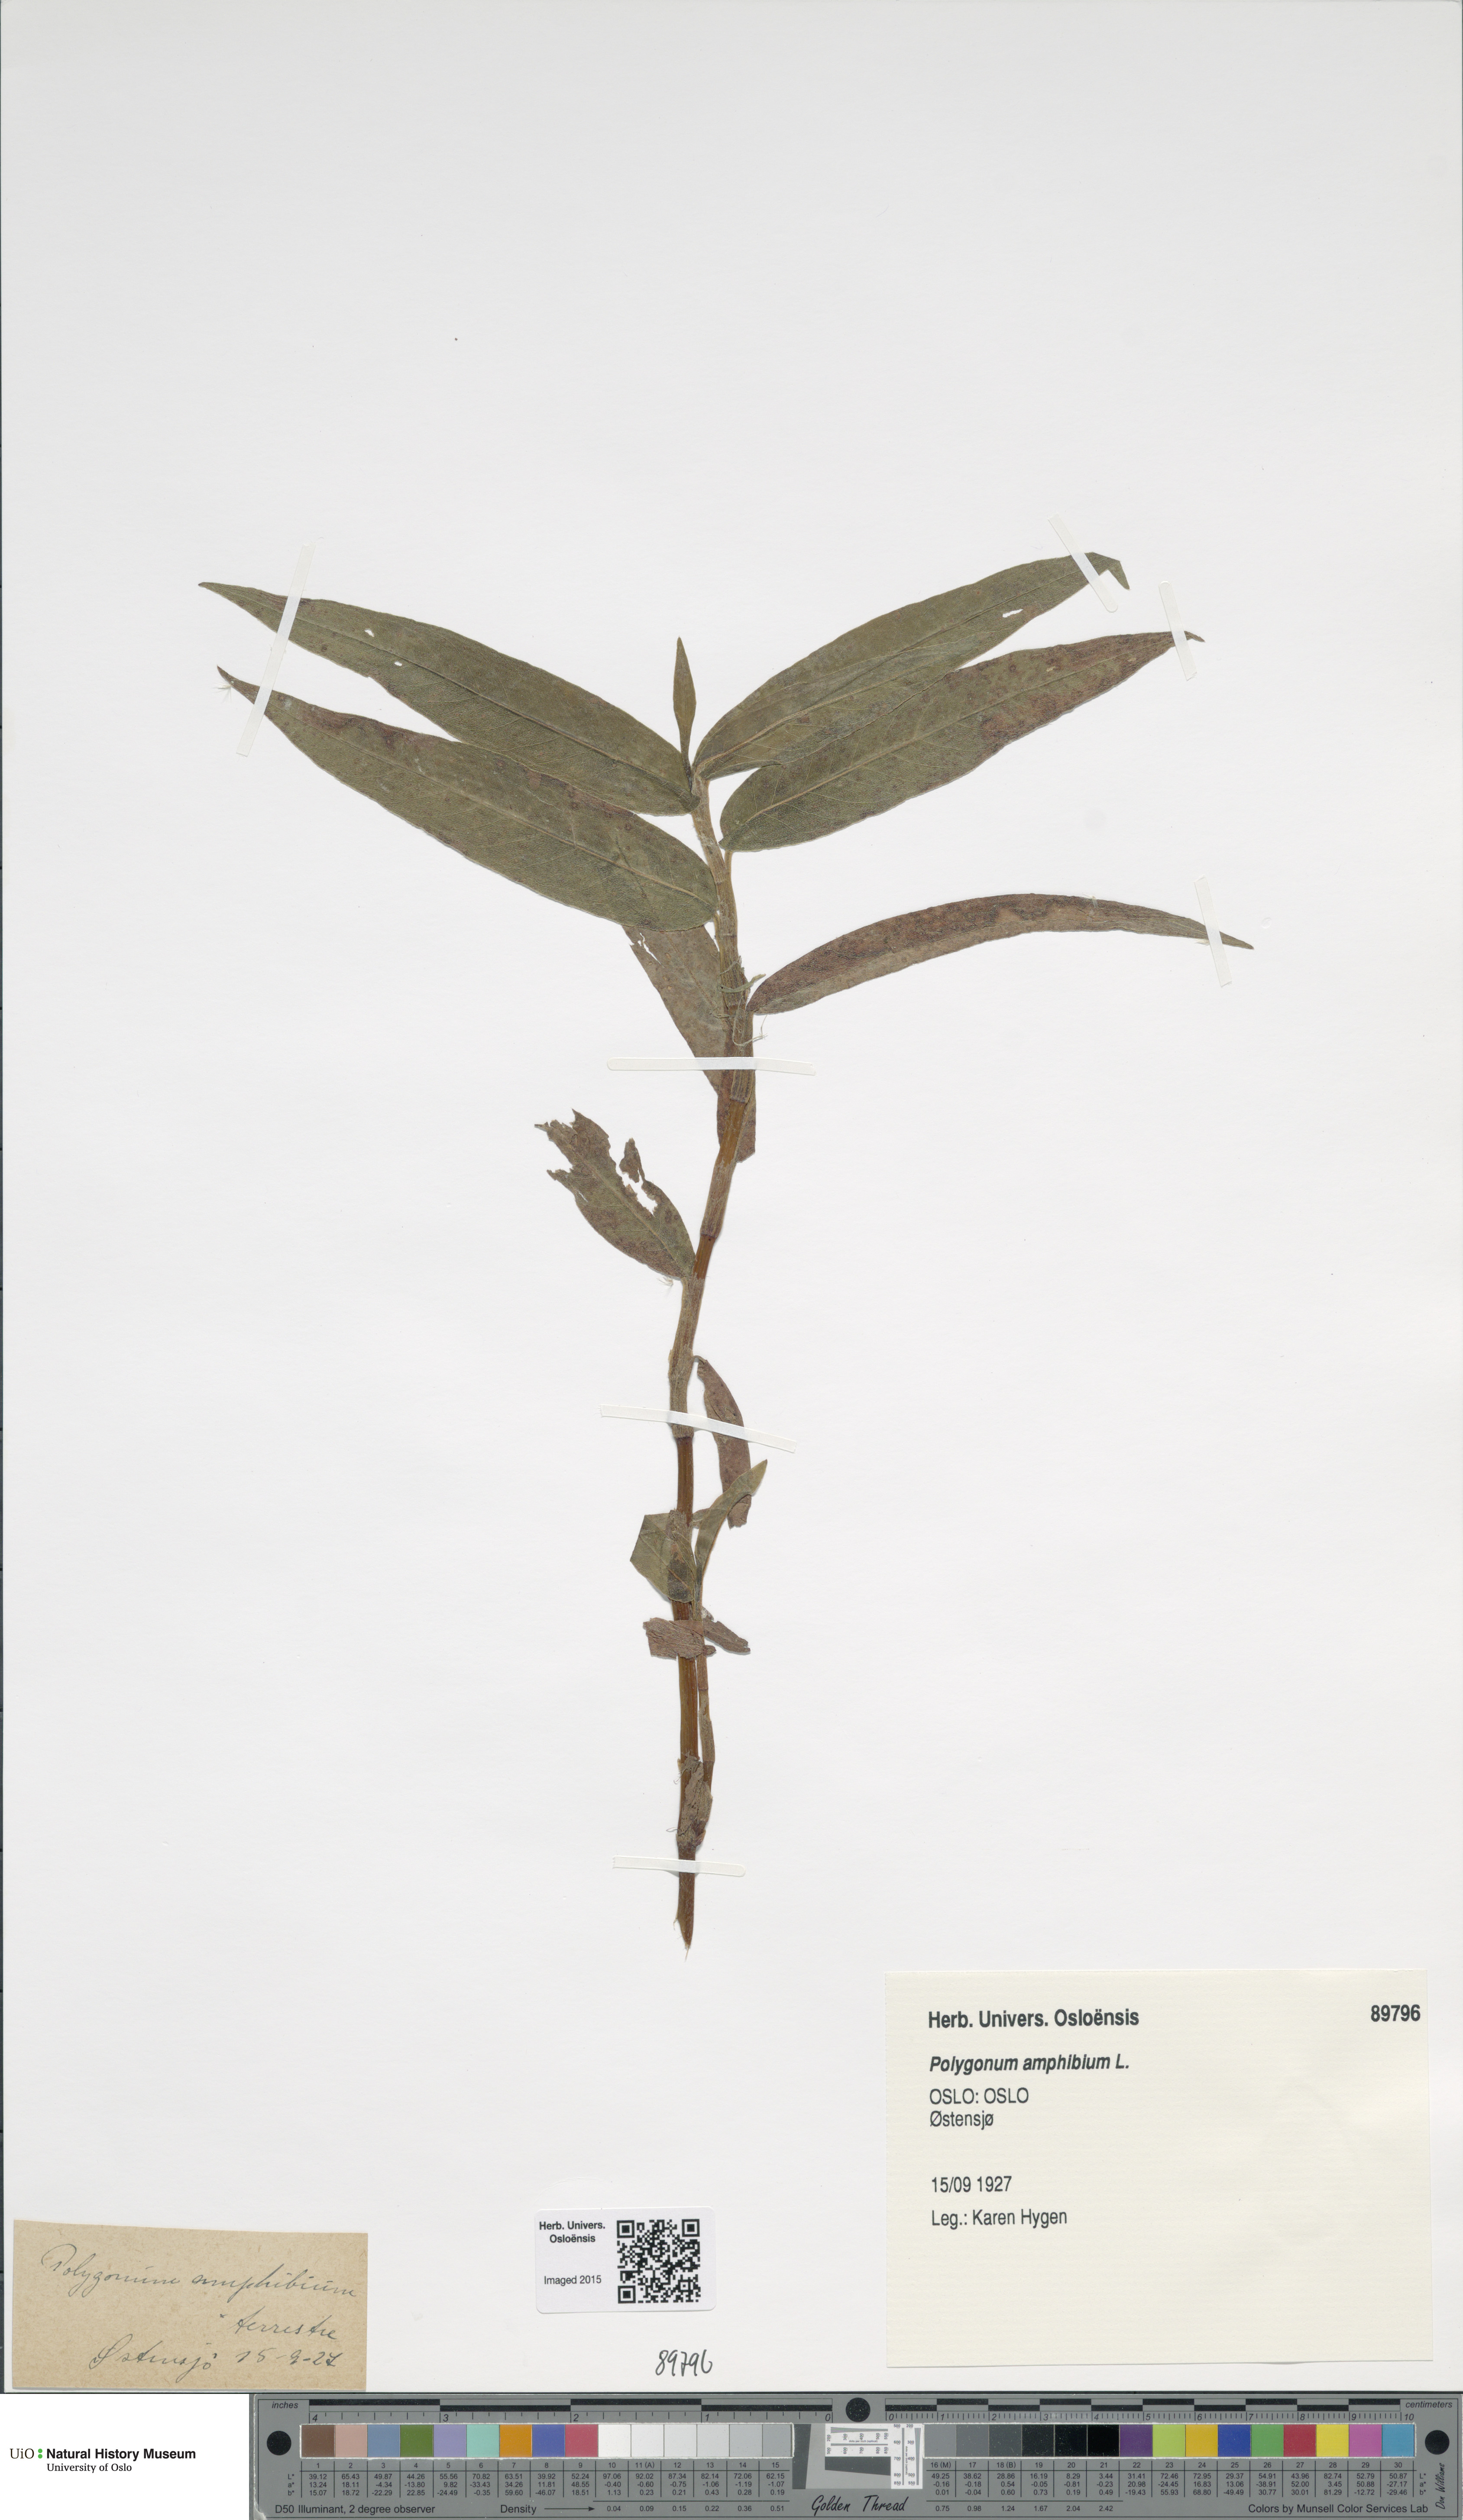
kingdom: Plantae
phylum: Tracheophyta
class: Magnoliopsida
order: Caryophyllales
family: Polygonaceae
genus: Persicaria
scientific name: Persicaria amphibia
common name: Amphibious bistort
